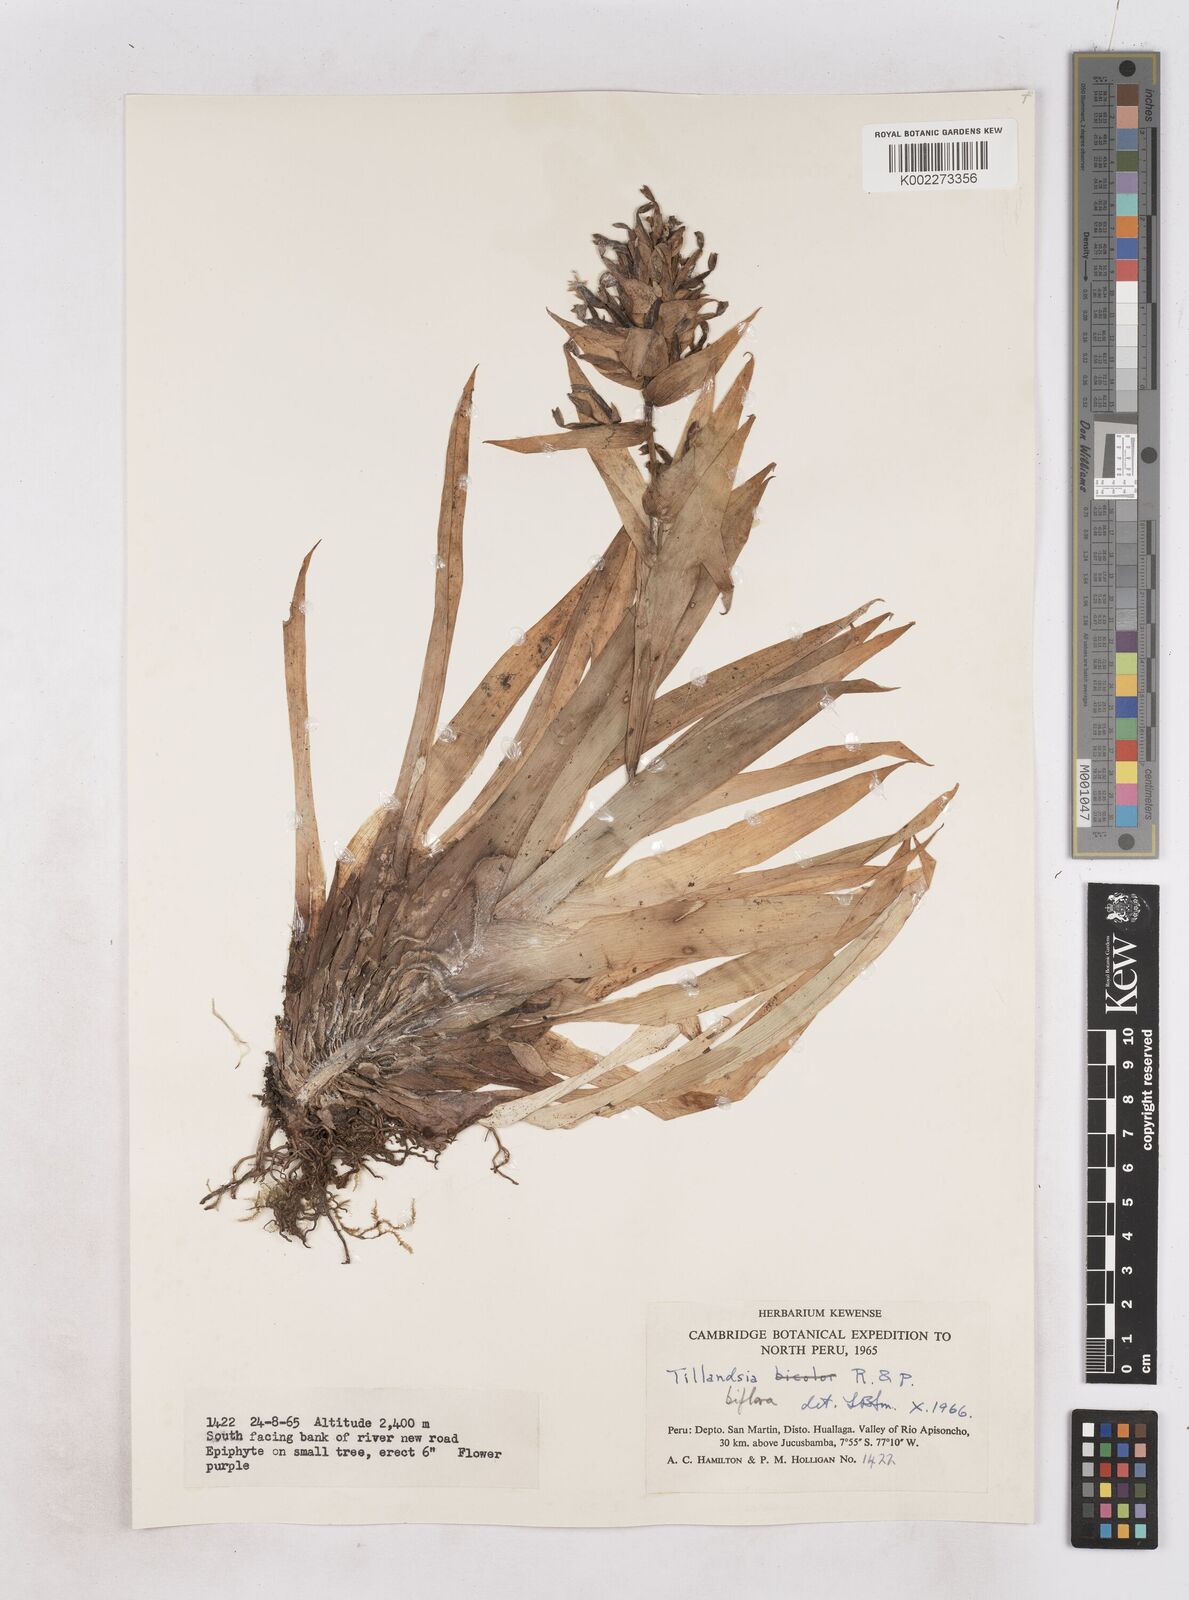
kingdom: Plantae
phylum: Tracheophyta
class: Liliopsida
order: Poales
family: Bromeliaceae
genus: Tillandsia
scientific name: Tillandsia biflora
